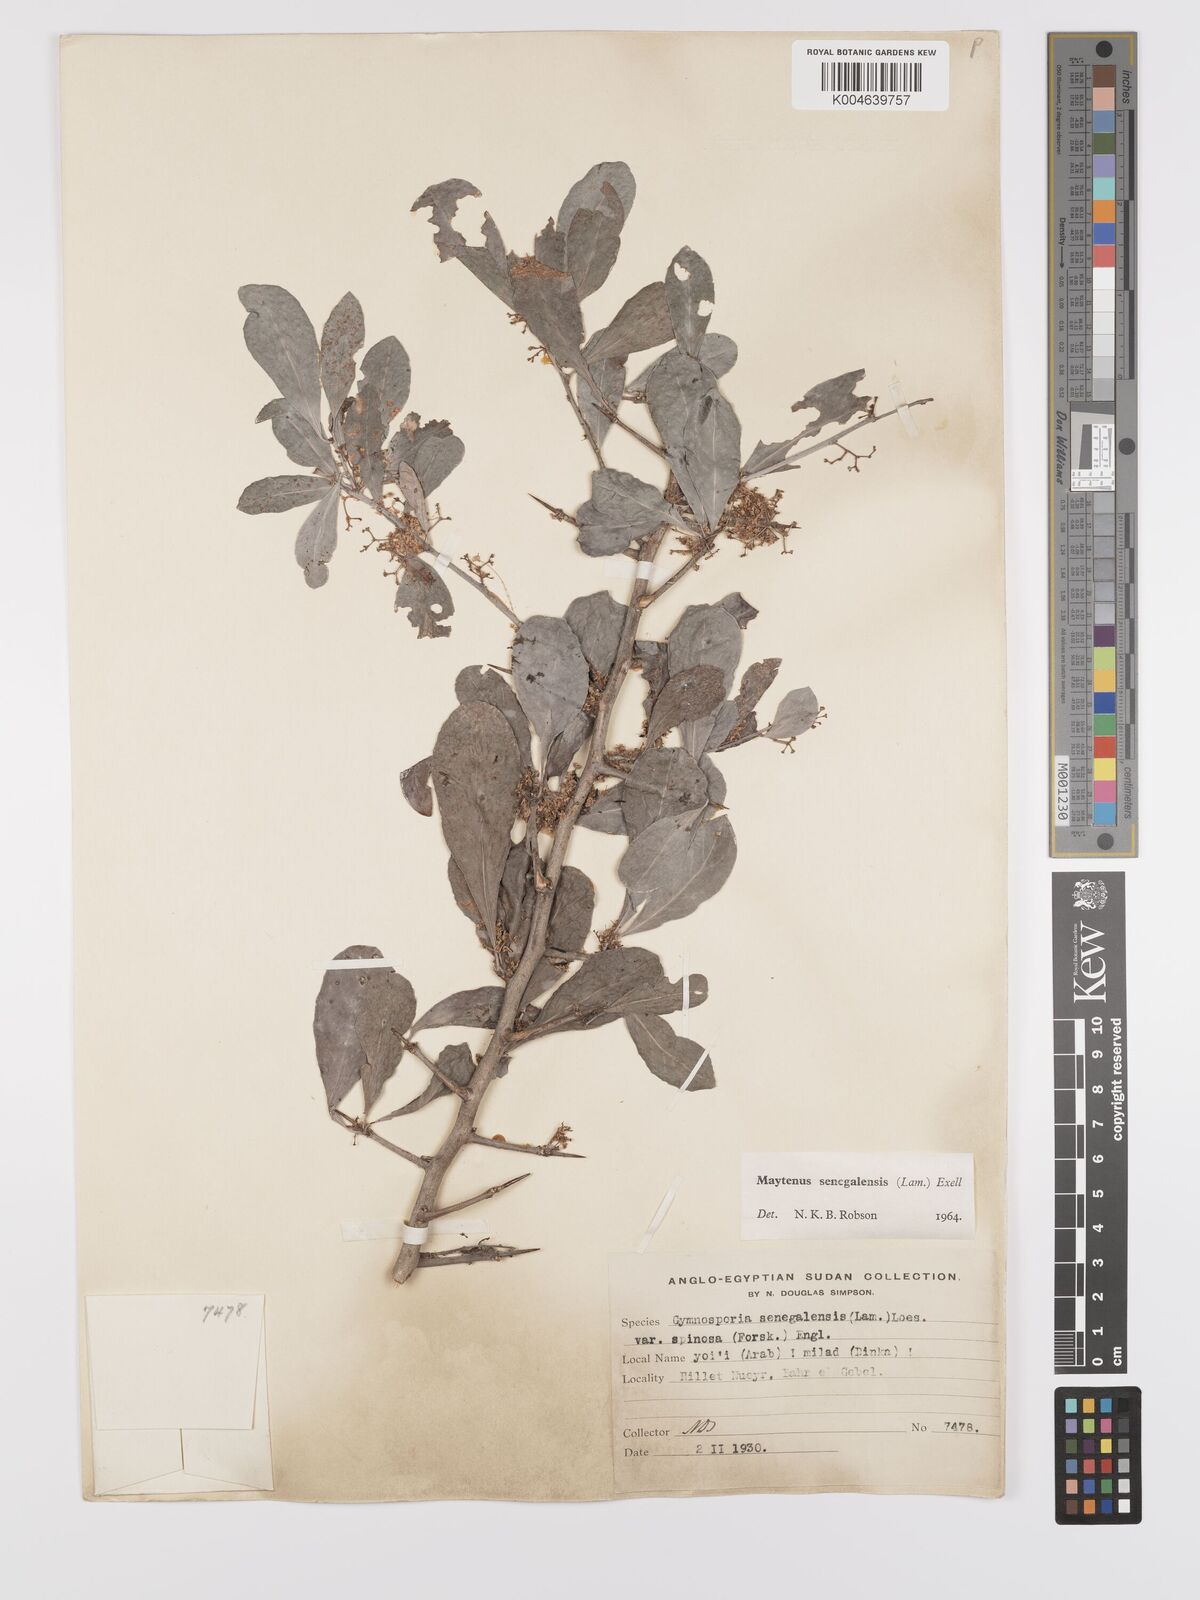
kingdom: Plantae
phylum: Tracheophyta
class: Magnoliopsida
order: Celastrales
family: Celastraceae
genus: Gymnosporia
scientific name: Gymnosporia senegalensis
